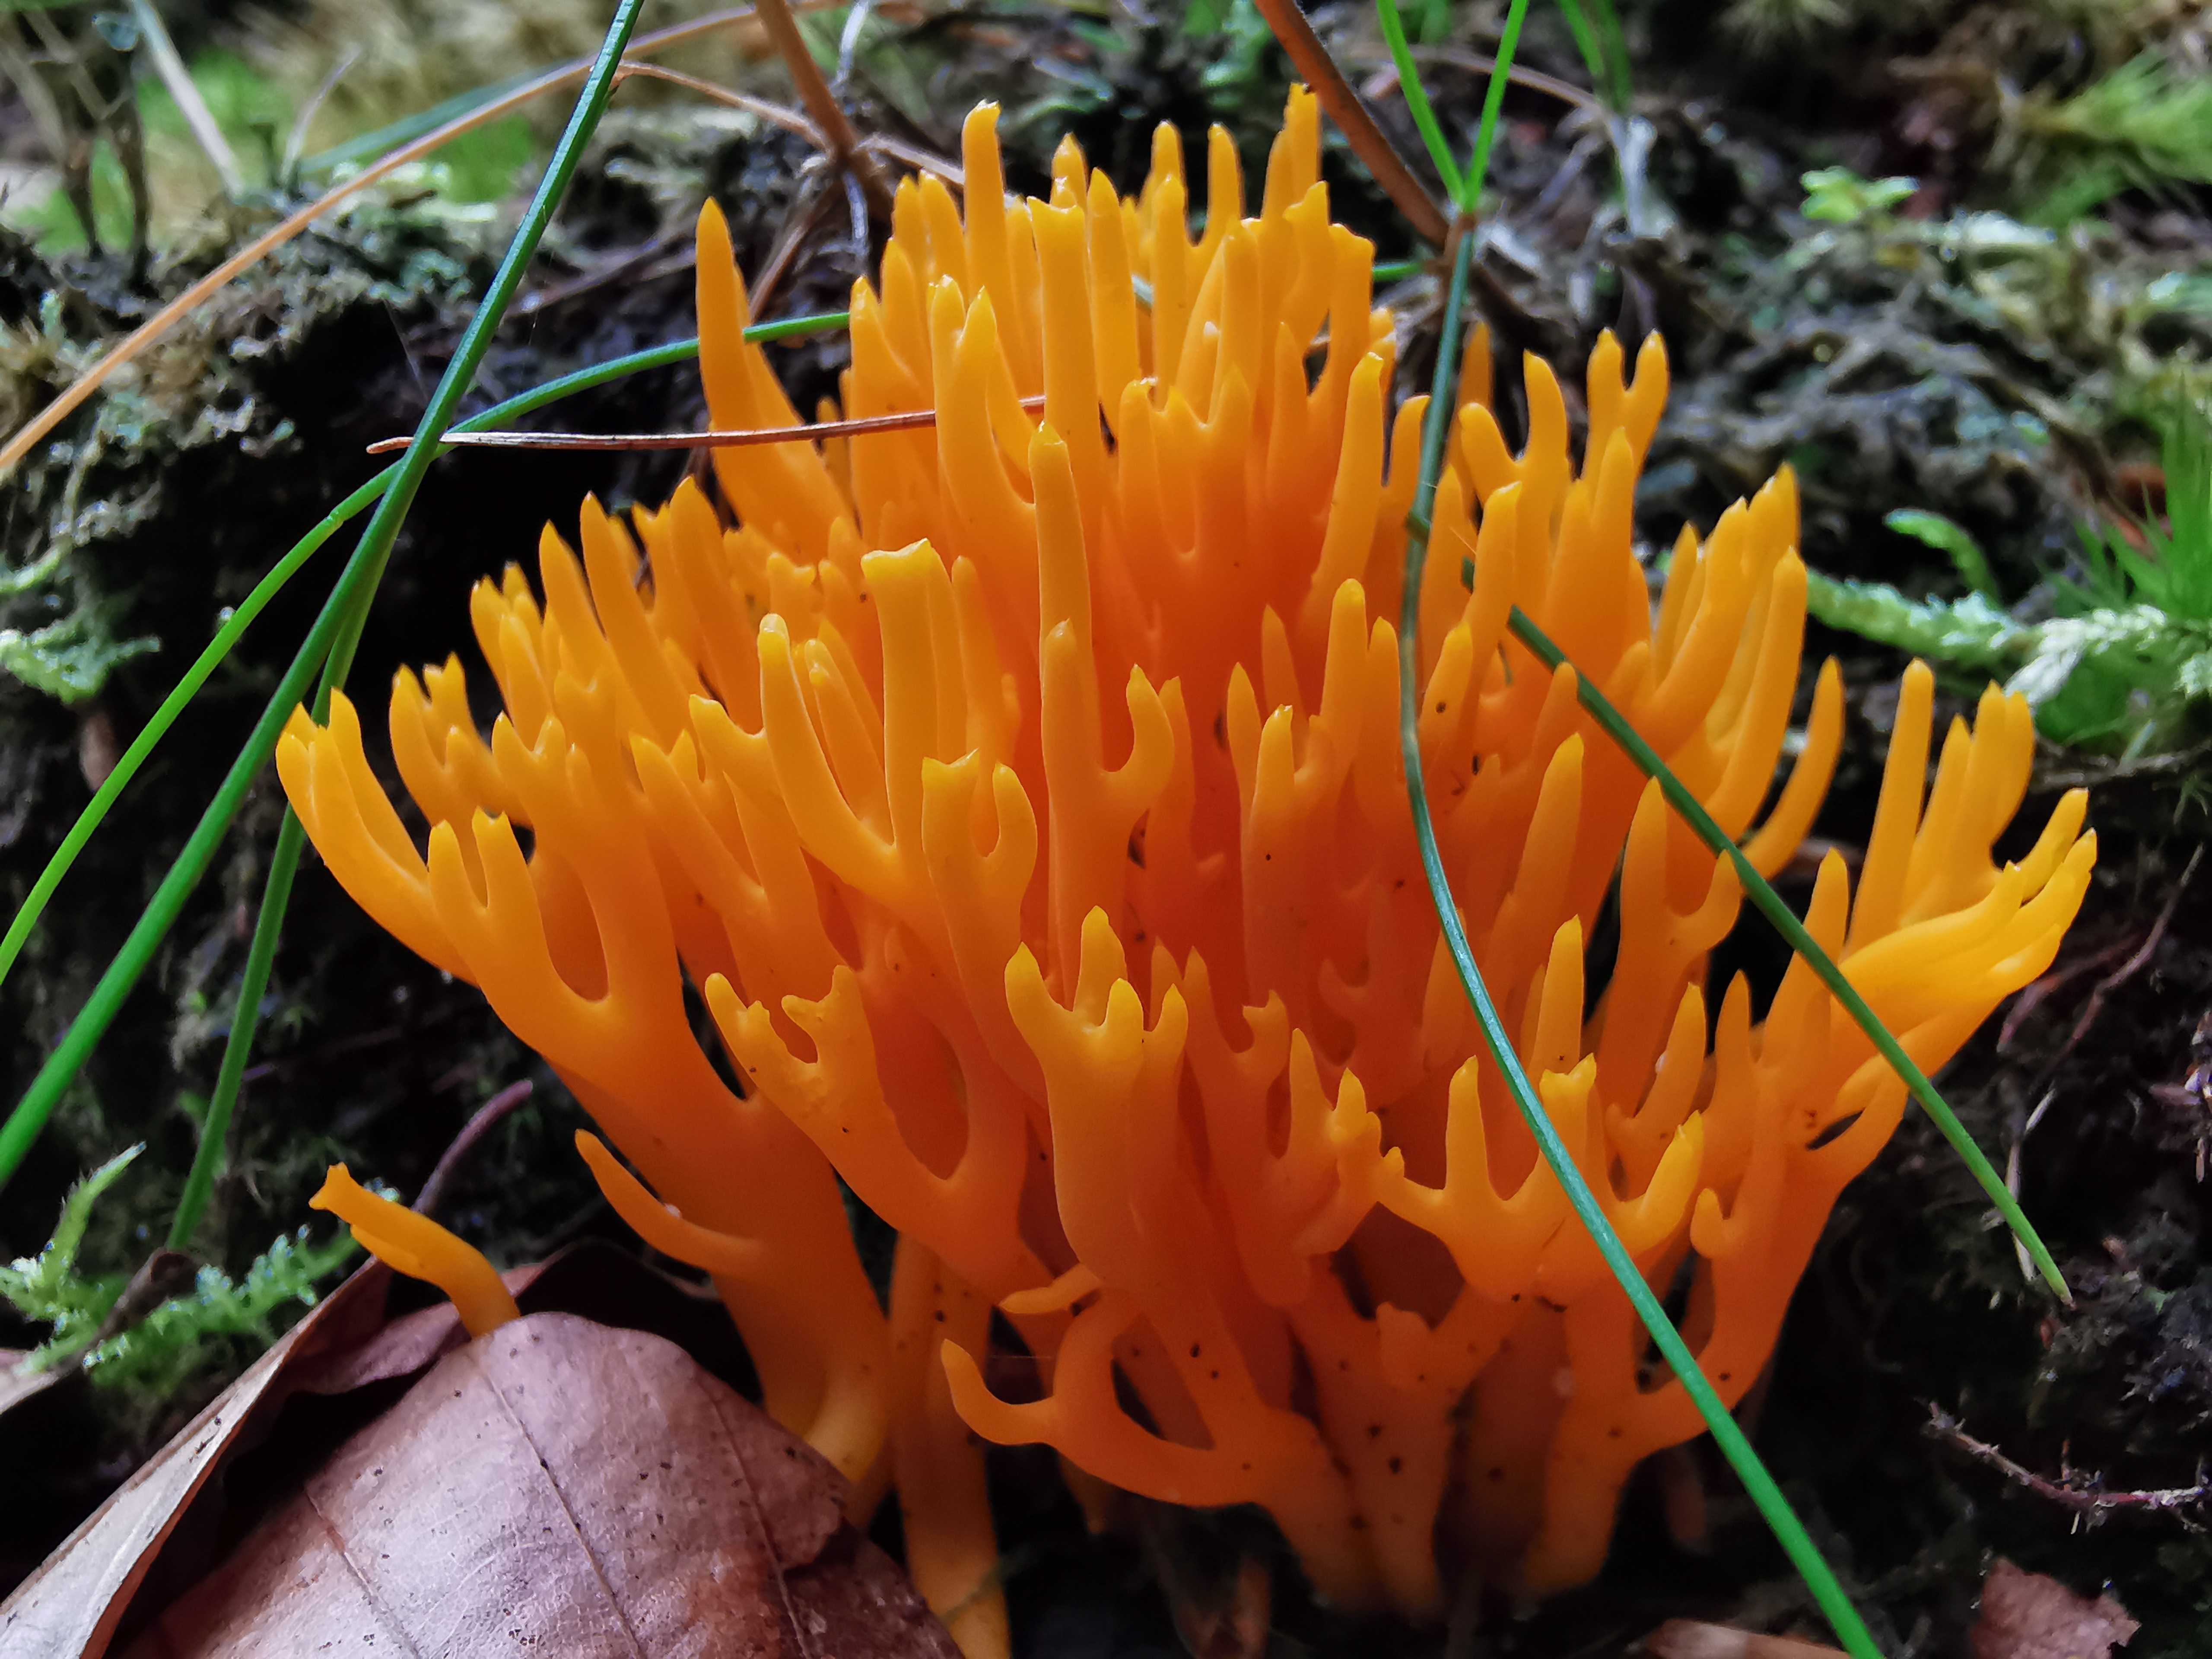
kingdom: Fungi
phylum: Basidiomycota
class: Dacrymycetes
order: Dacrymycetales
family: Dacrymycetaceae
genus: Calocera
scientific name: Calocera viscosa
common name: almindelig guldgaffel
